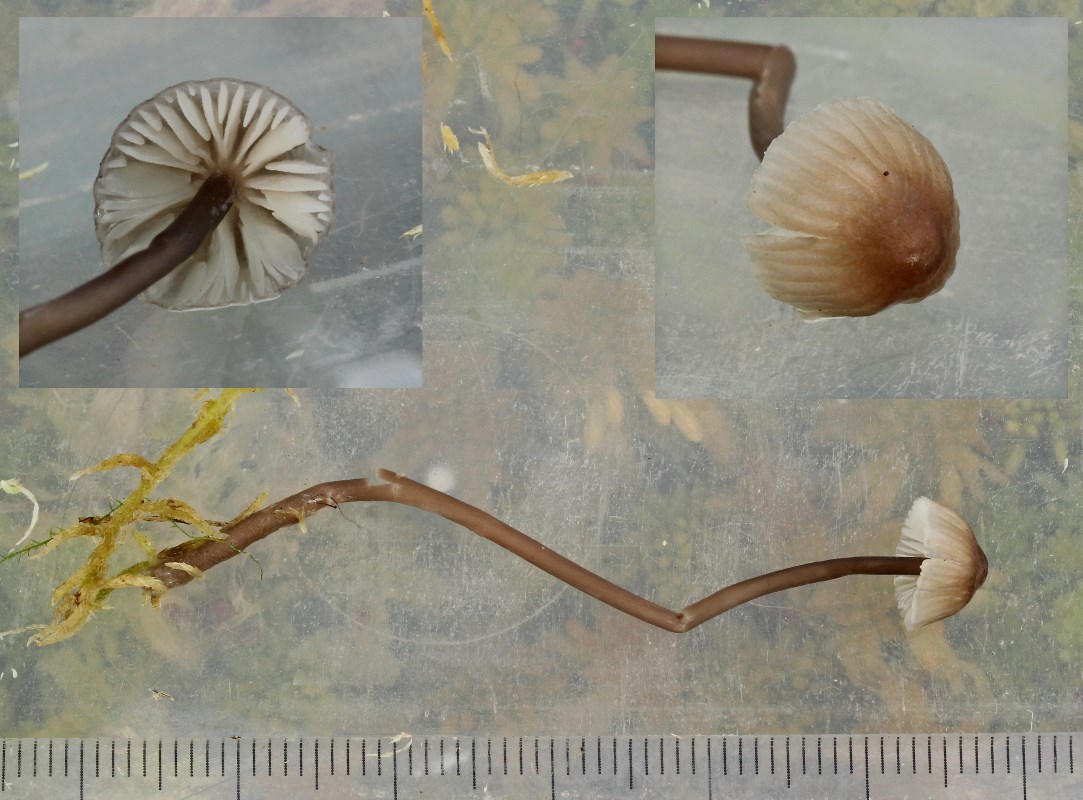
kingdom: Fungi
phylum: Basidiomycota
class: Agaricomycetes
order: Agaricales
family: Mycenaceae
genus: Mycena
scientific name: Mycena galopus
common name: hvidmælket huesvamp
